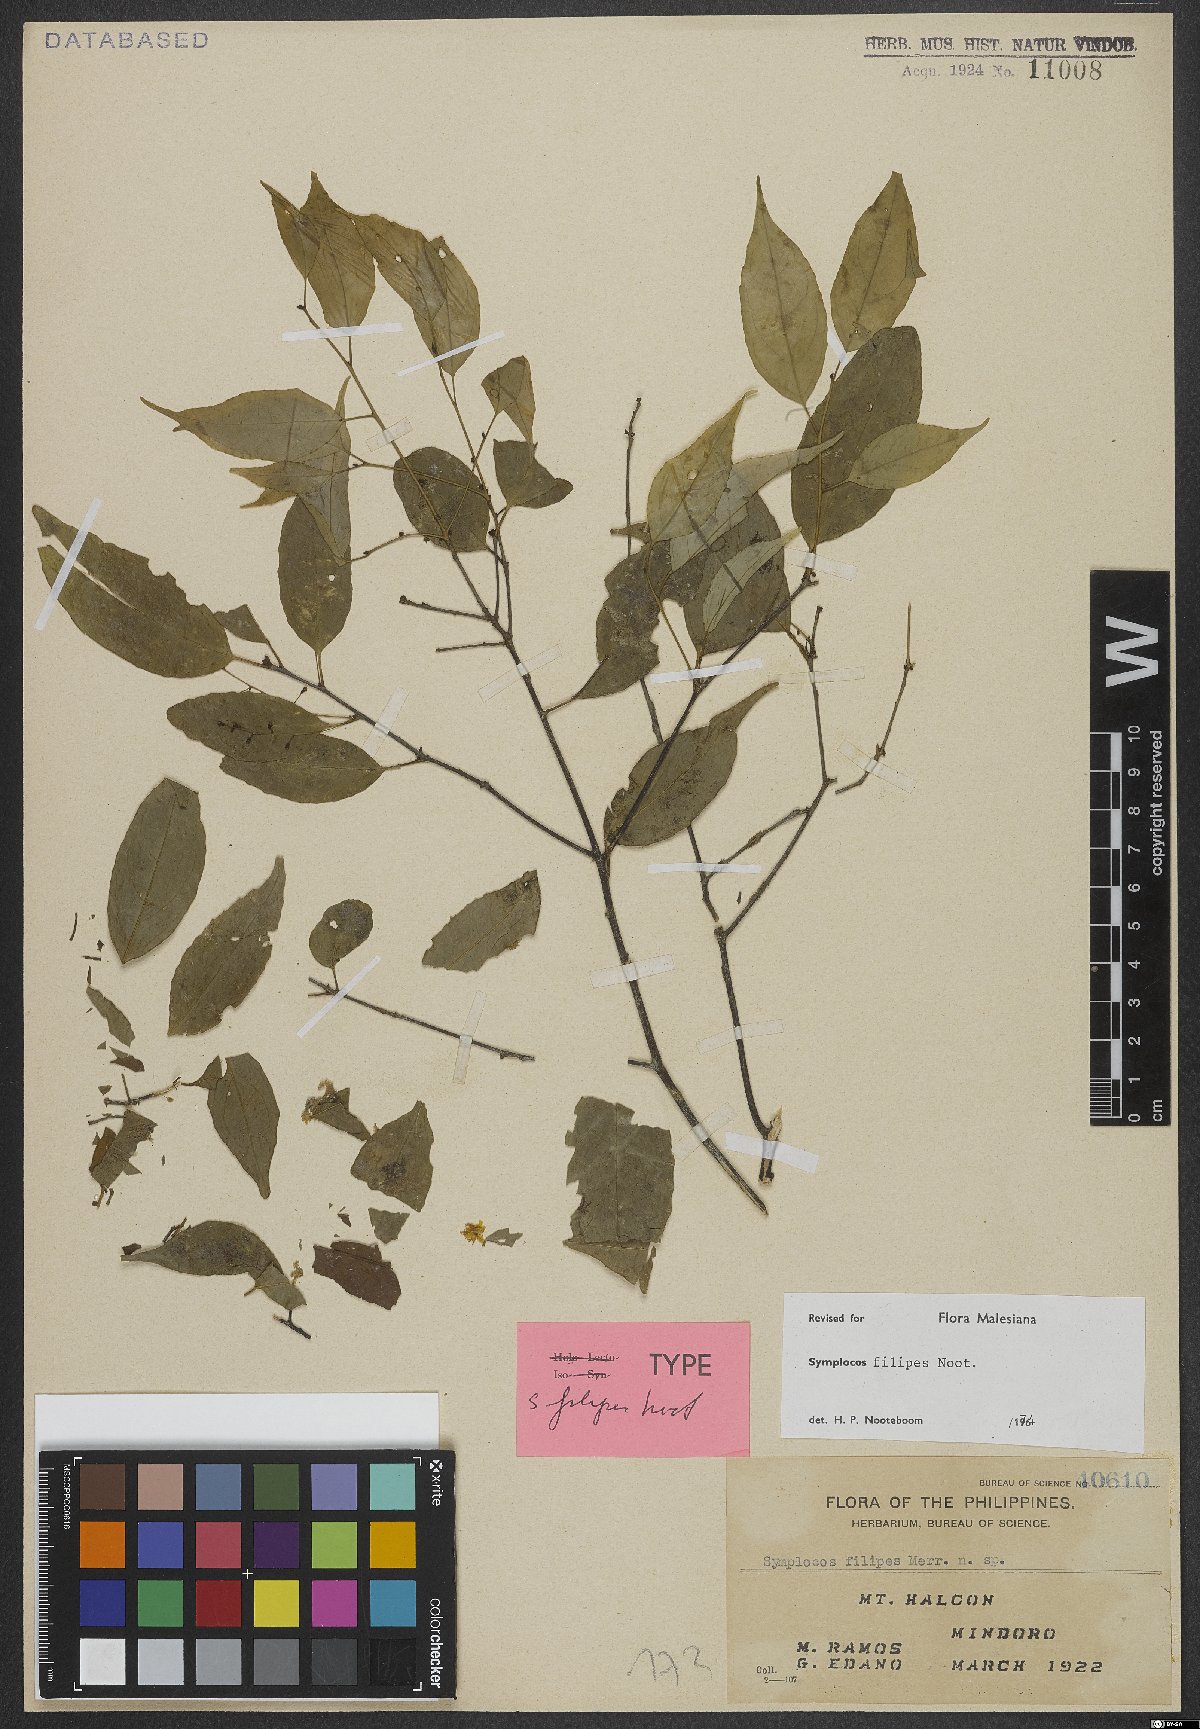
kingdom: Plantae
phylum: Tracheophyta
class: Magnoliopsida
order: Ericales
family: Symplocaceae
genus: Symplocos
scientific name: Symplocos filipes
